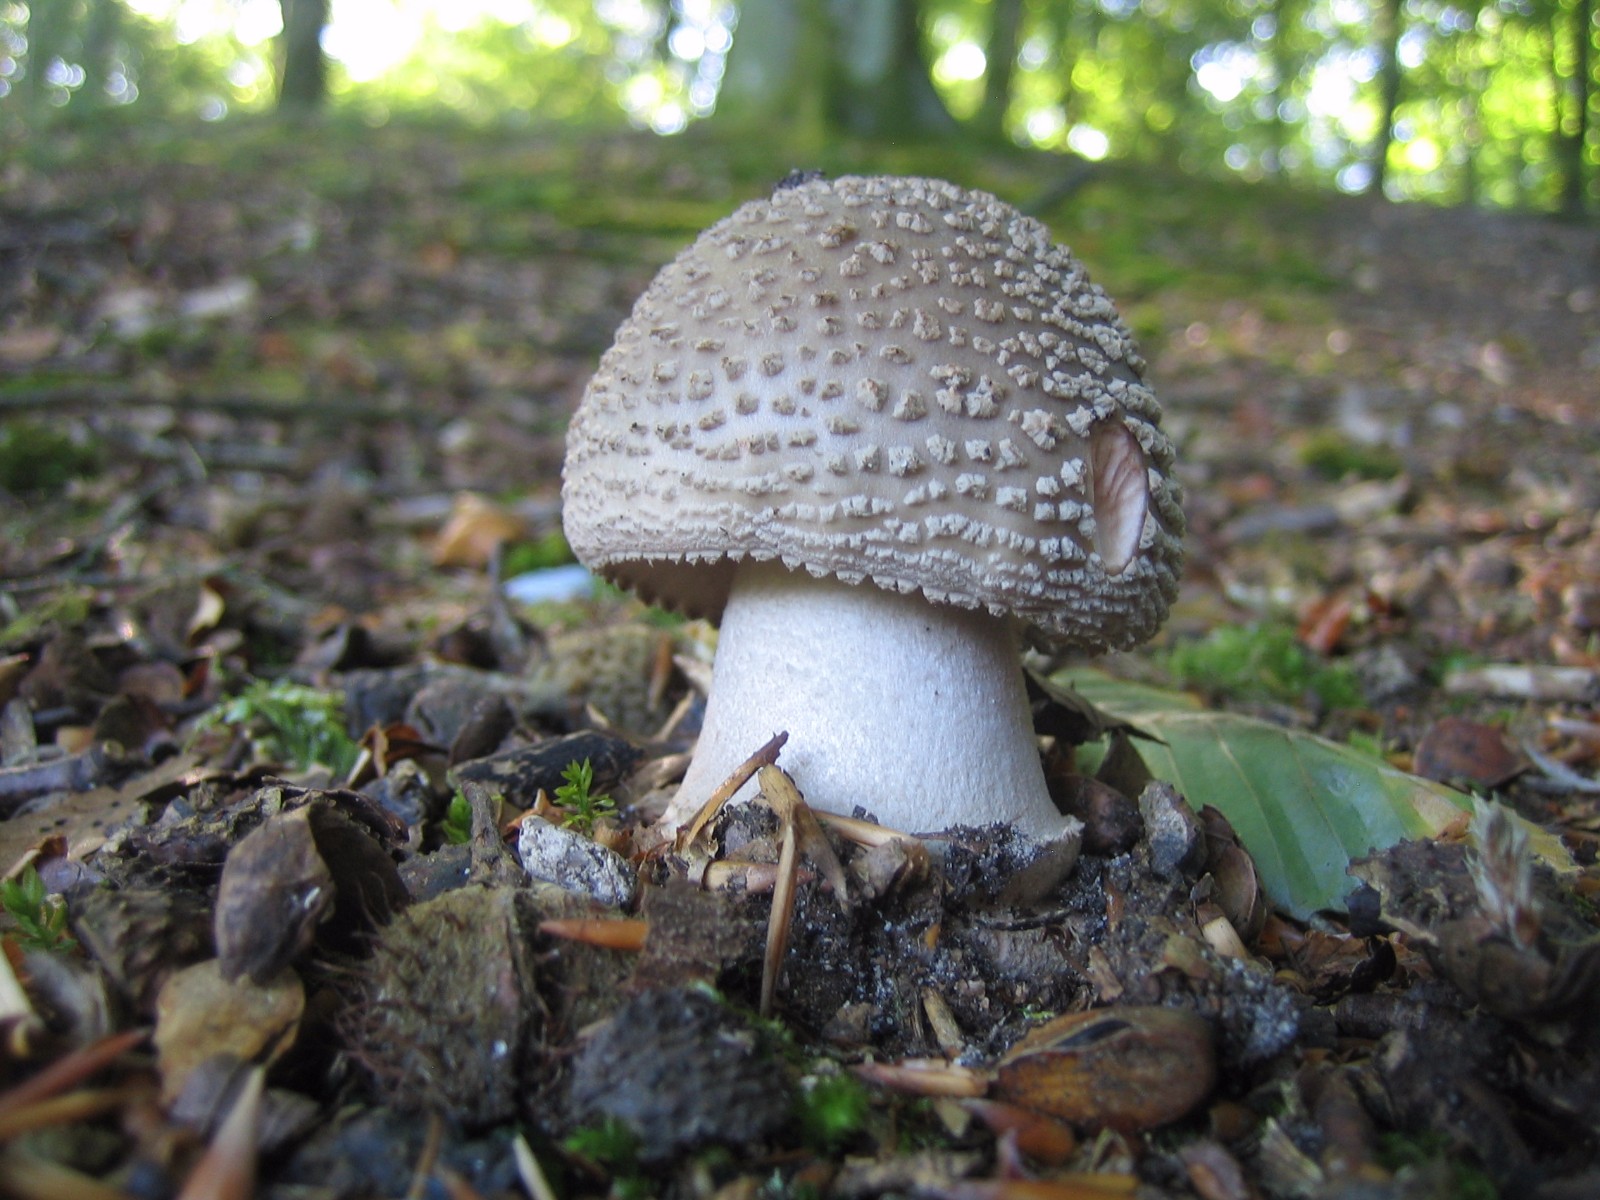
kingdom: Fungi
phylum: Basidiomycota
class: Agaricomycetes
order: Agaricales
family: Amanitaceae
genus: Amanita
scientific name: Amanita rubescens
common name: rødmende fluesvamp
